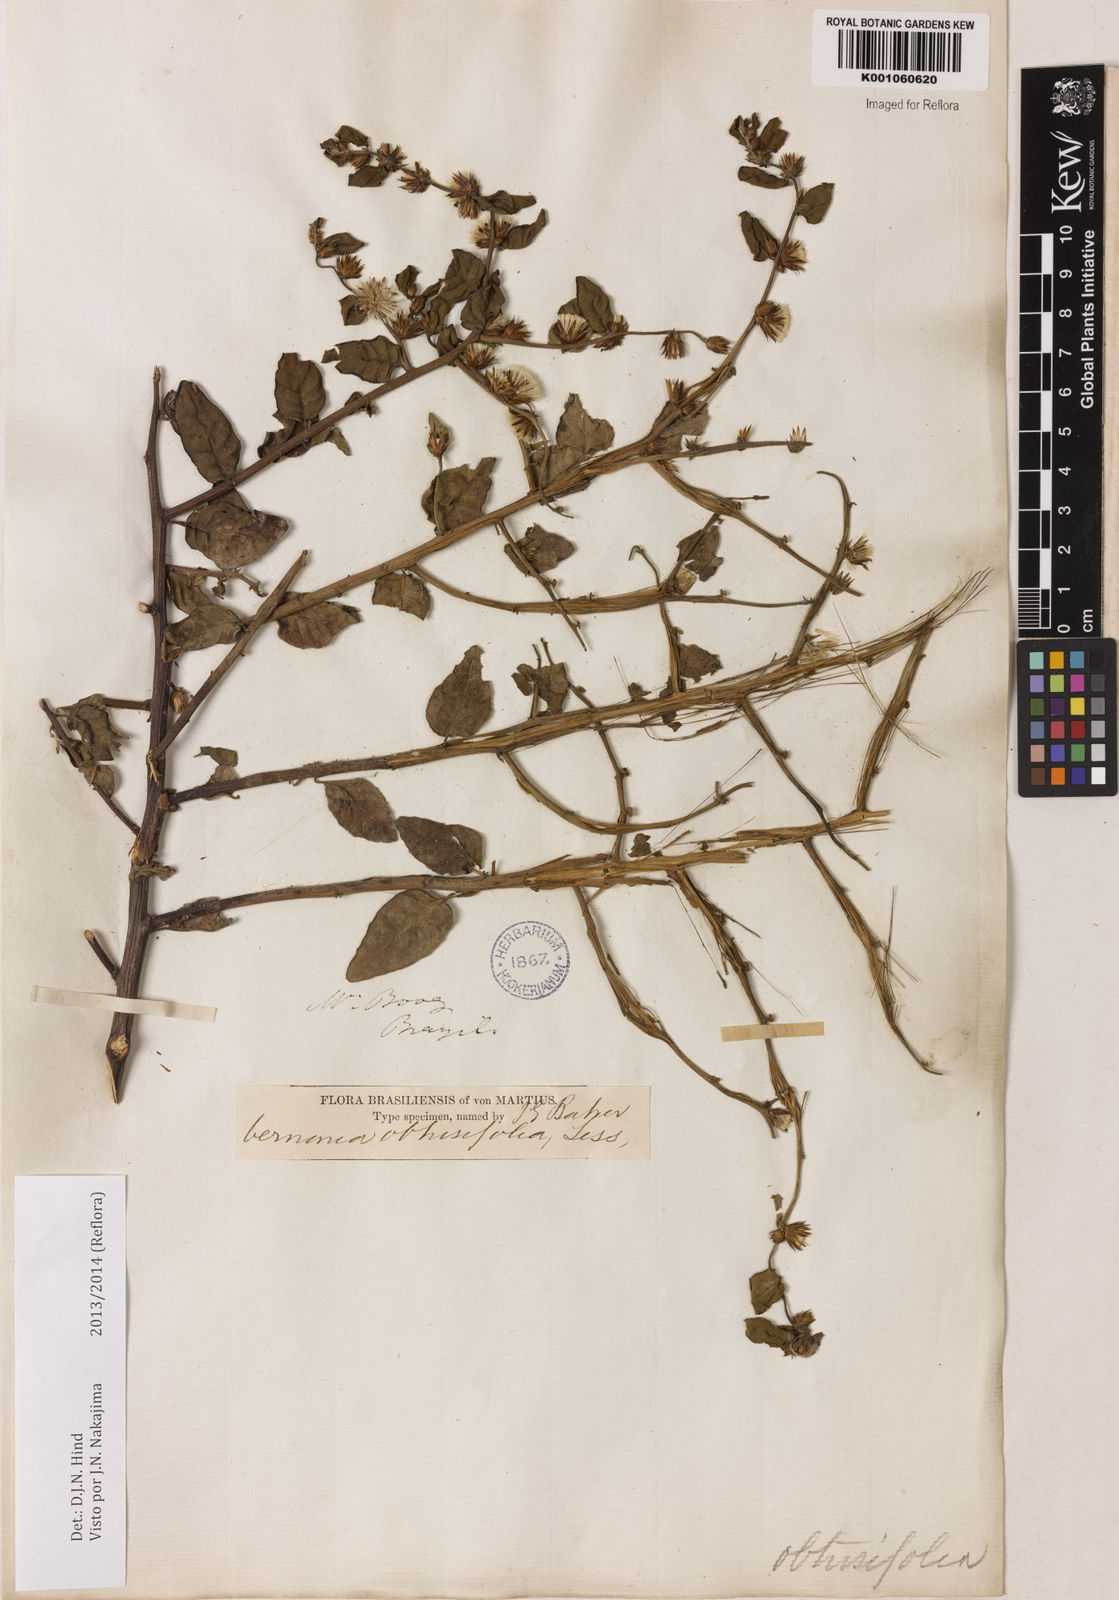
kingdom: Plantae
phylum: Tracheophyta
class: Magnoliopsida
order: Asterales
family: Asteraceae
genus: Lepidaploa
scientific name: Lepidaploa obtusifolia
